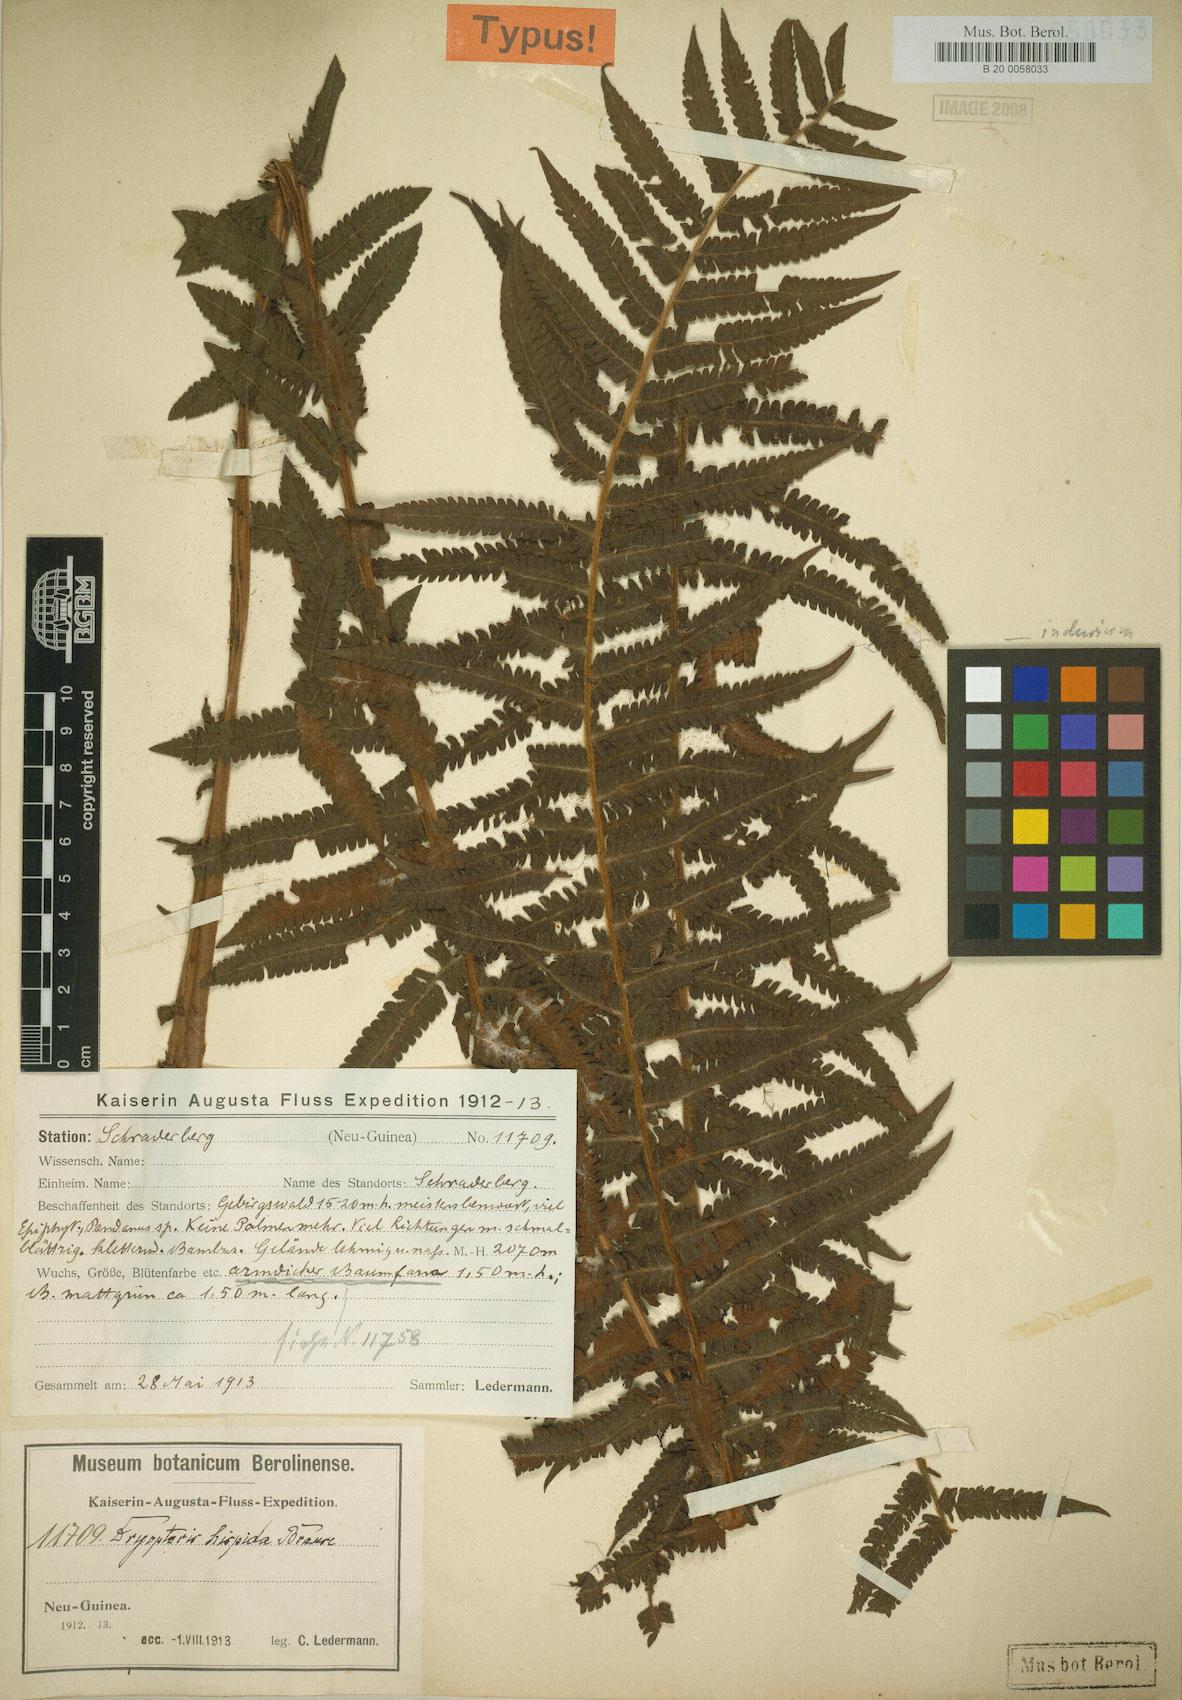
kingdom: Plantae
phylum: Tracheophyta
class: Polypodiopsida
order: Polypodiales
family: Thelypteridaceae
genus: Sphaerostephanos
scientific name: Sphaerostephanos hispiduliformis
